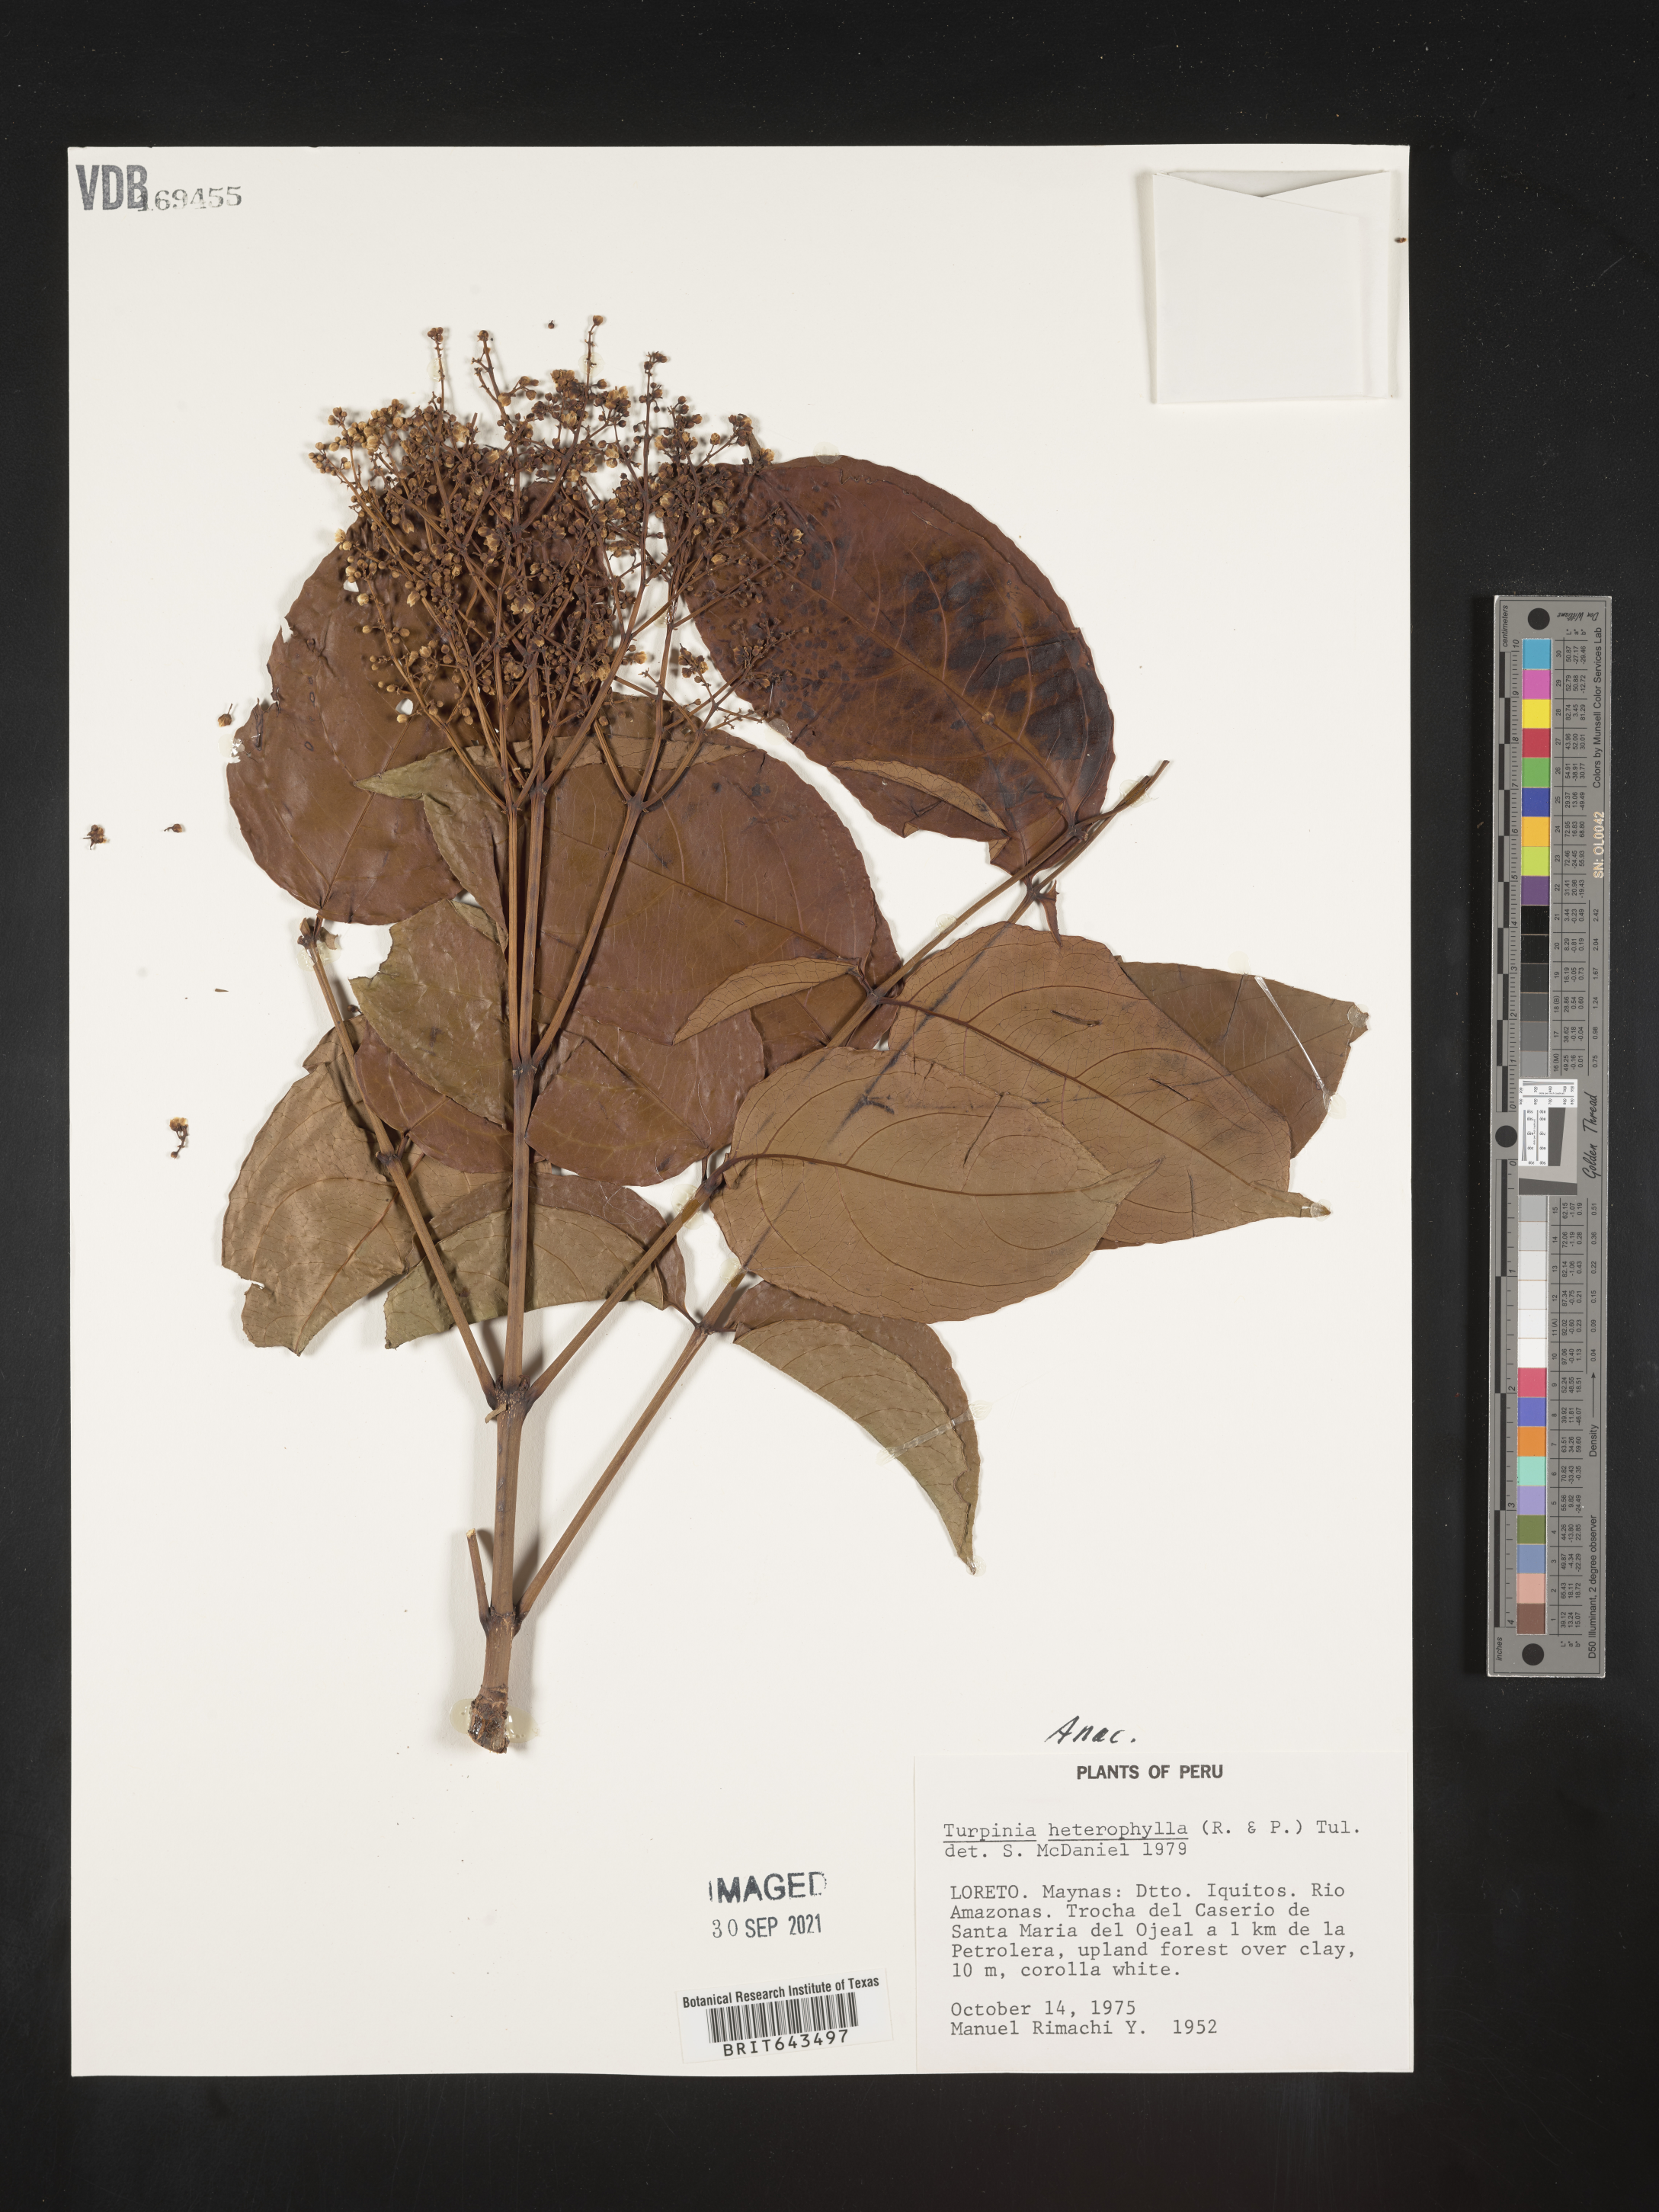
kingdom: Plantae
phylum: Tracheophyta
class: Magnoliopsida
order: Crossosomatales
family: Staphyleaceae
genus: Turpinia
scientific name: Turpinia
